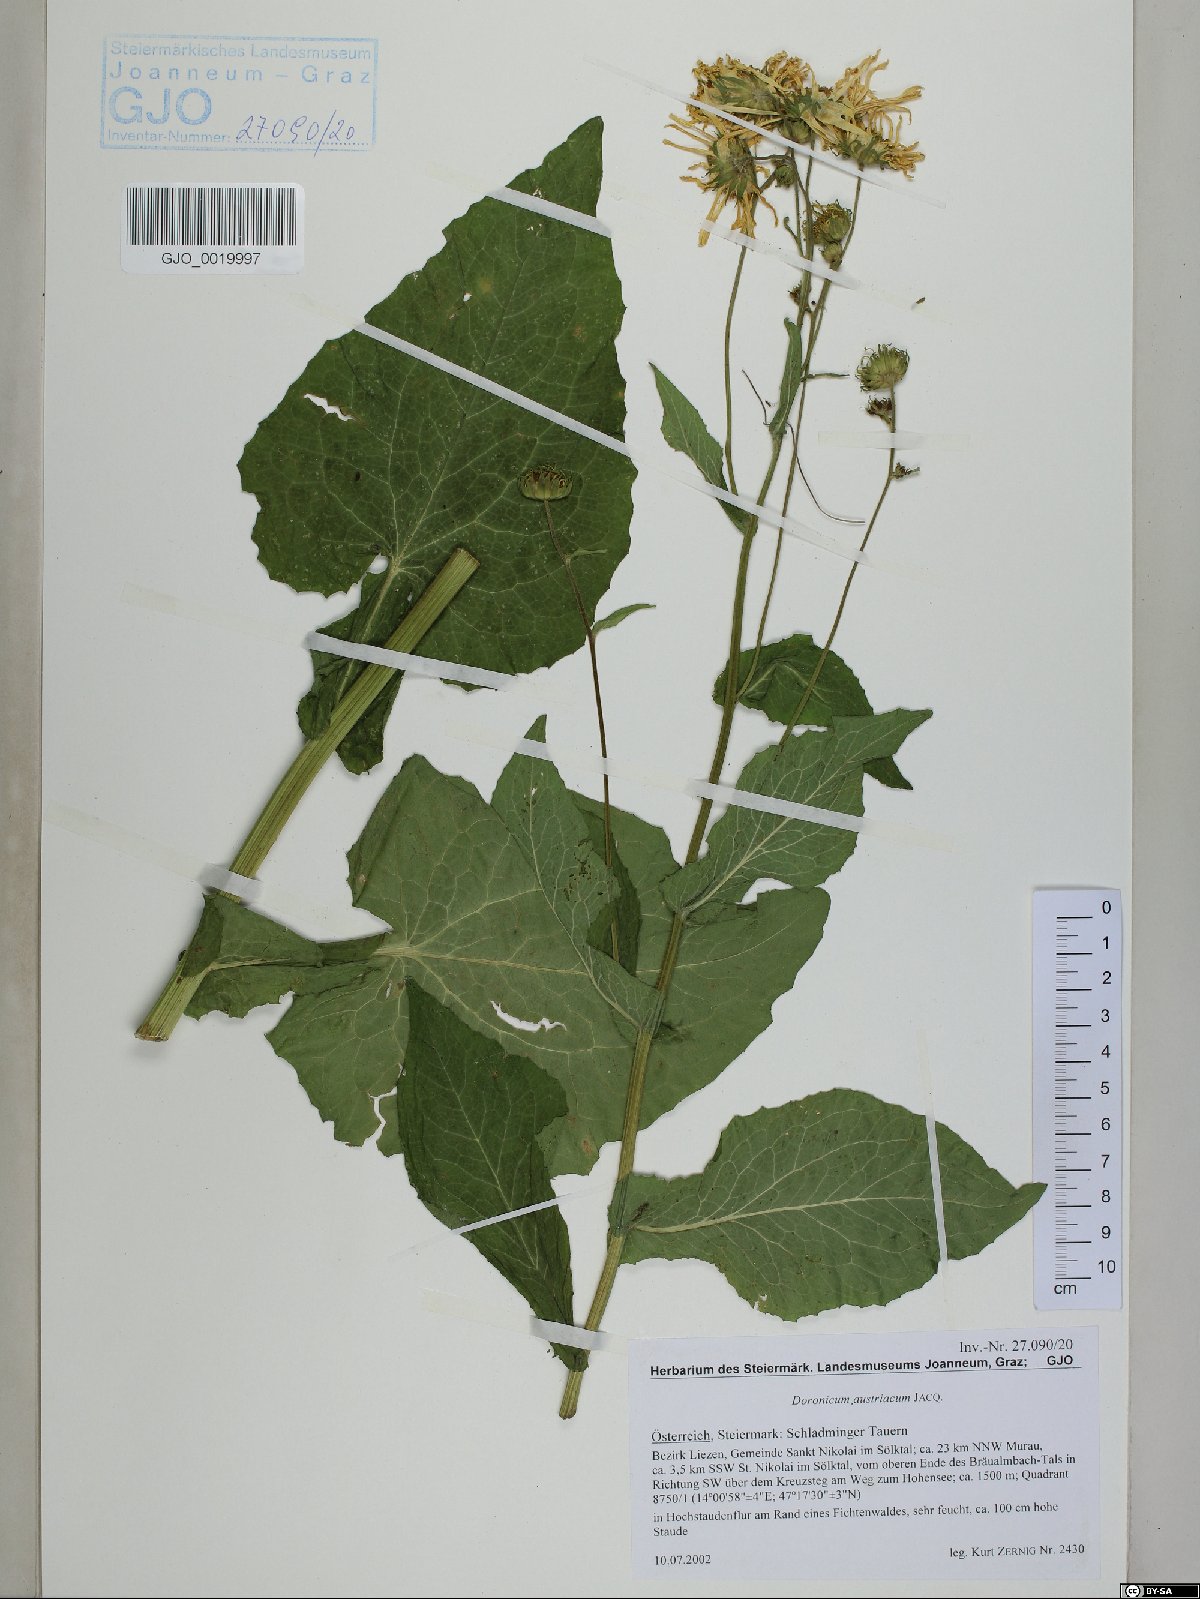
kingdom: Plantae
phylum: Tracheophyta
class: Magnoliopsida
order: Asterales
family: Asteraceae
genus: Doronicum
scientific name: Doronicum austriacum
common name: Austrian leopard's-bane
